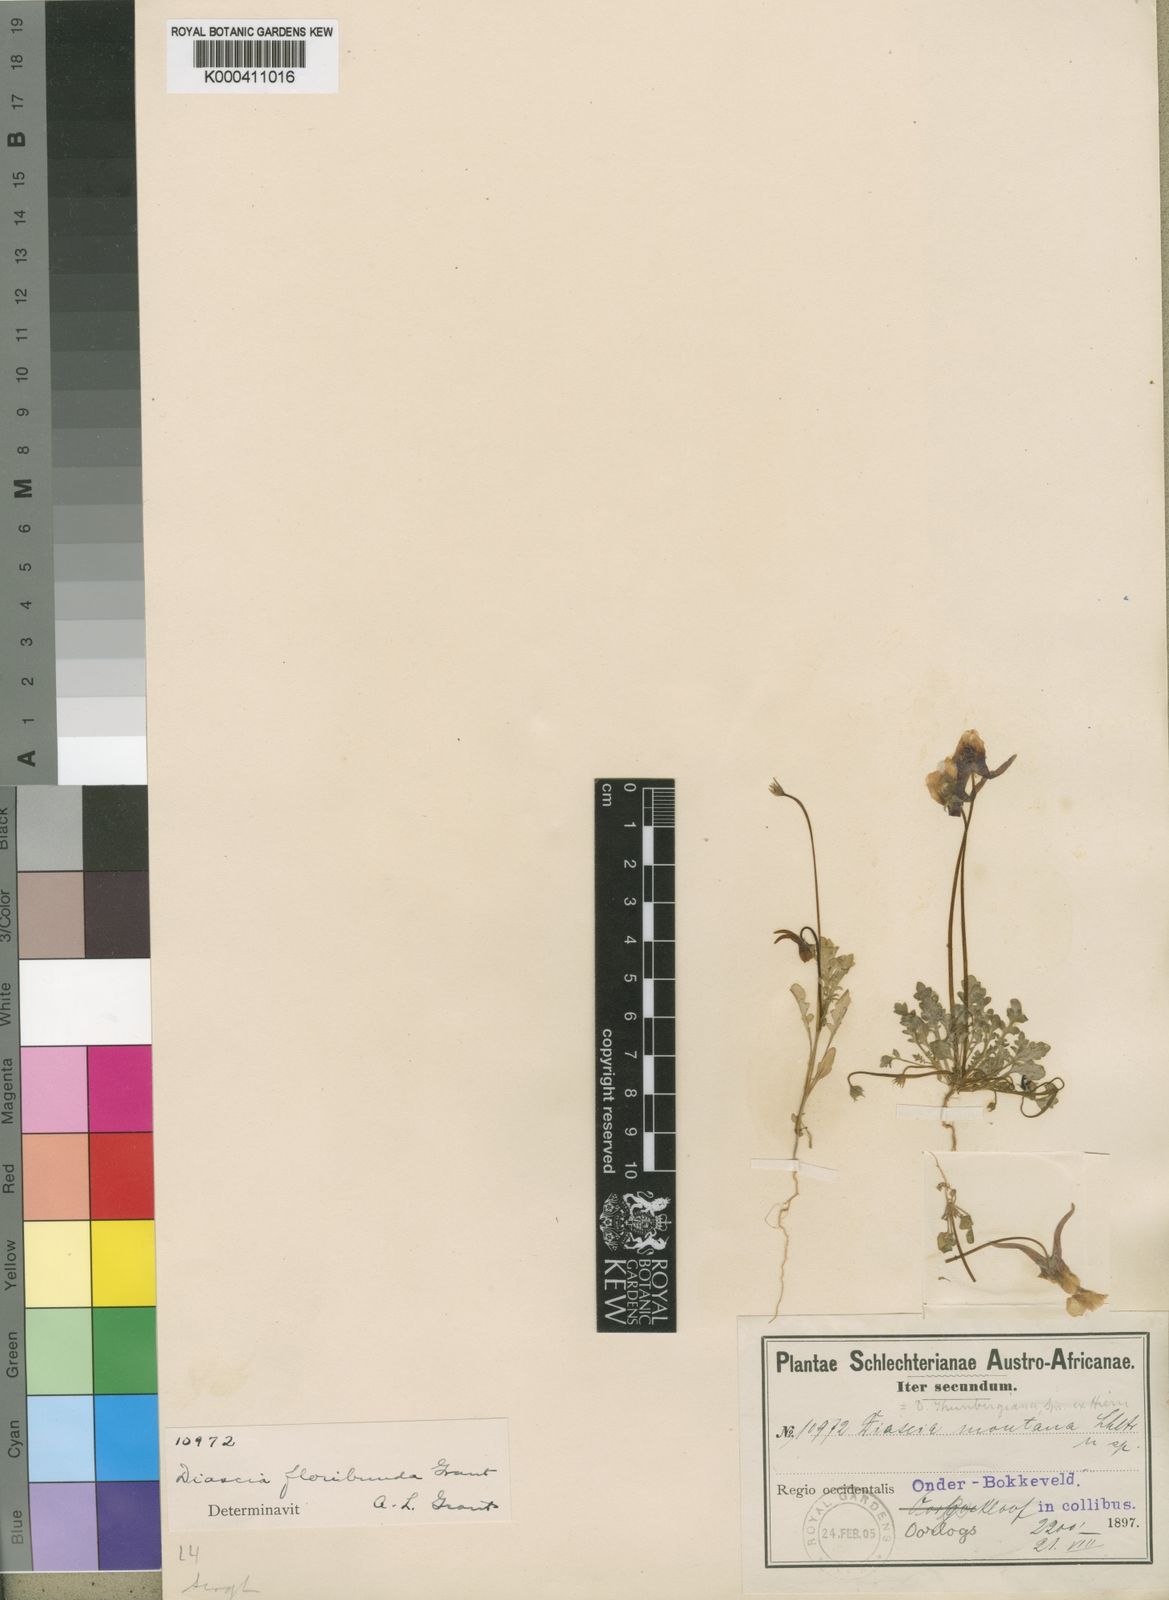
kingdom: Plantae
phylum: Tracheophyta
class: Magnoliopsida
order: Lamiales
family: Scrophulariaceae
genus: Diascia
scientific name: Diascia
